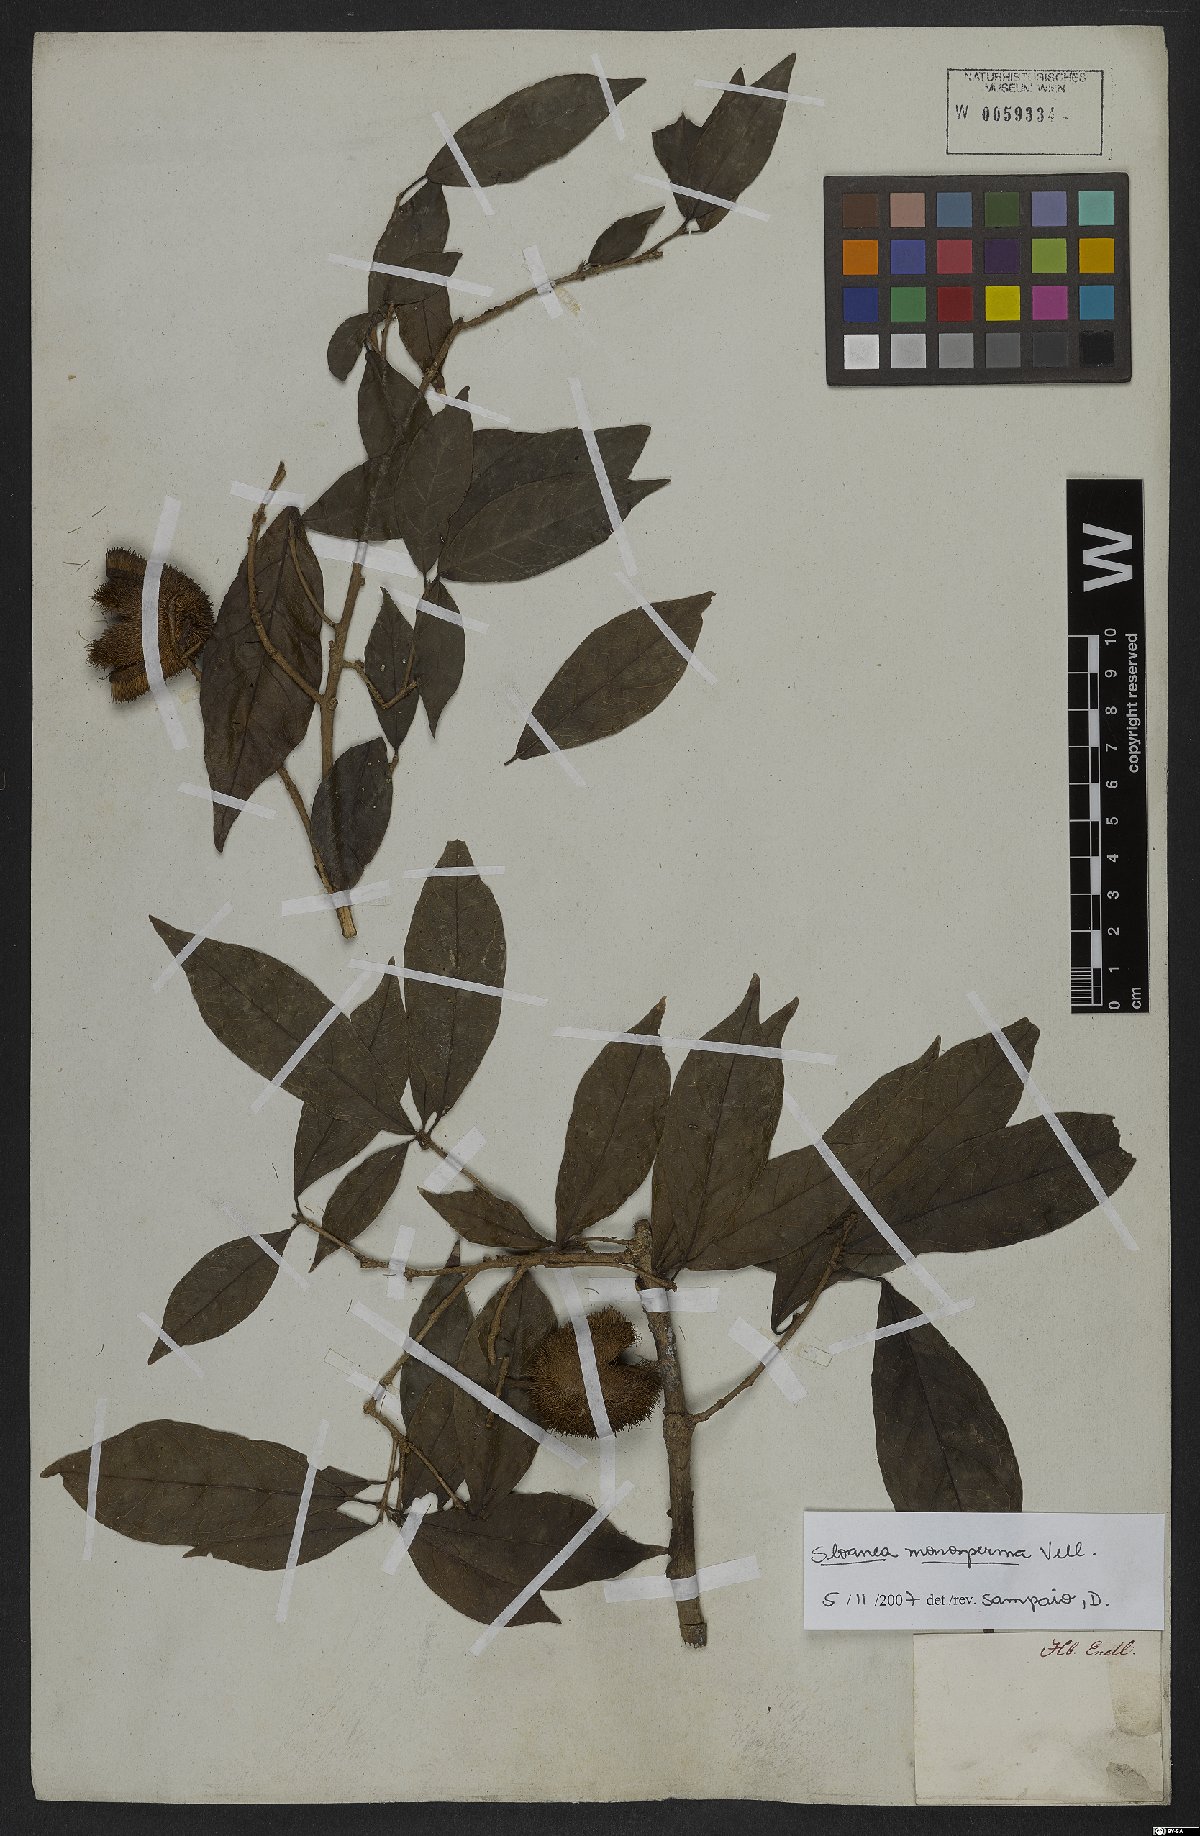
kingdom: Plantae
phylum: Tracheophyta
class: Magnoliopsida
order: Oxalidales
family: Elaeocarpaceae
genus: Sloanea
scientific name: Sloanea hirsuta
